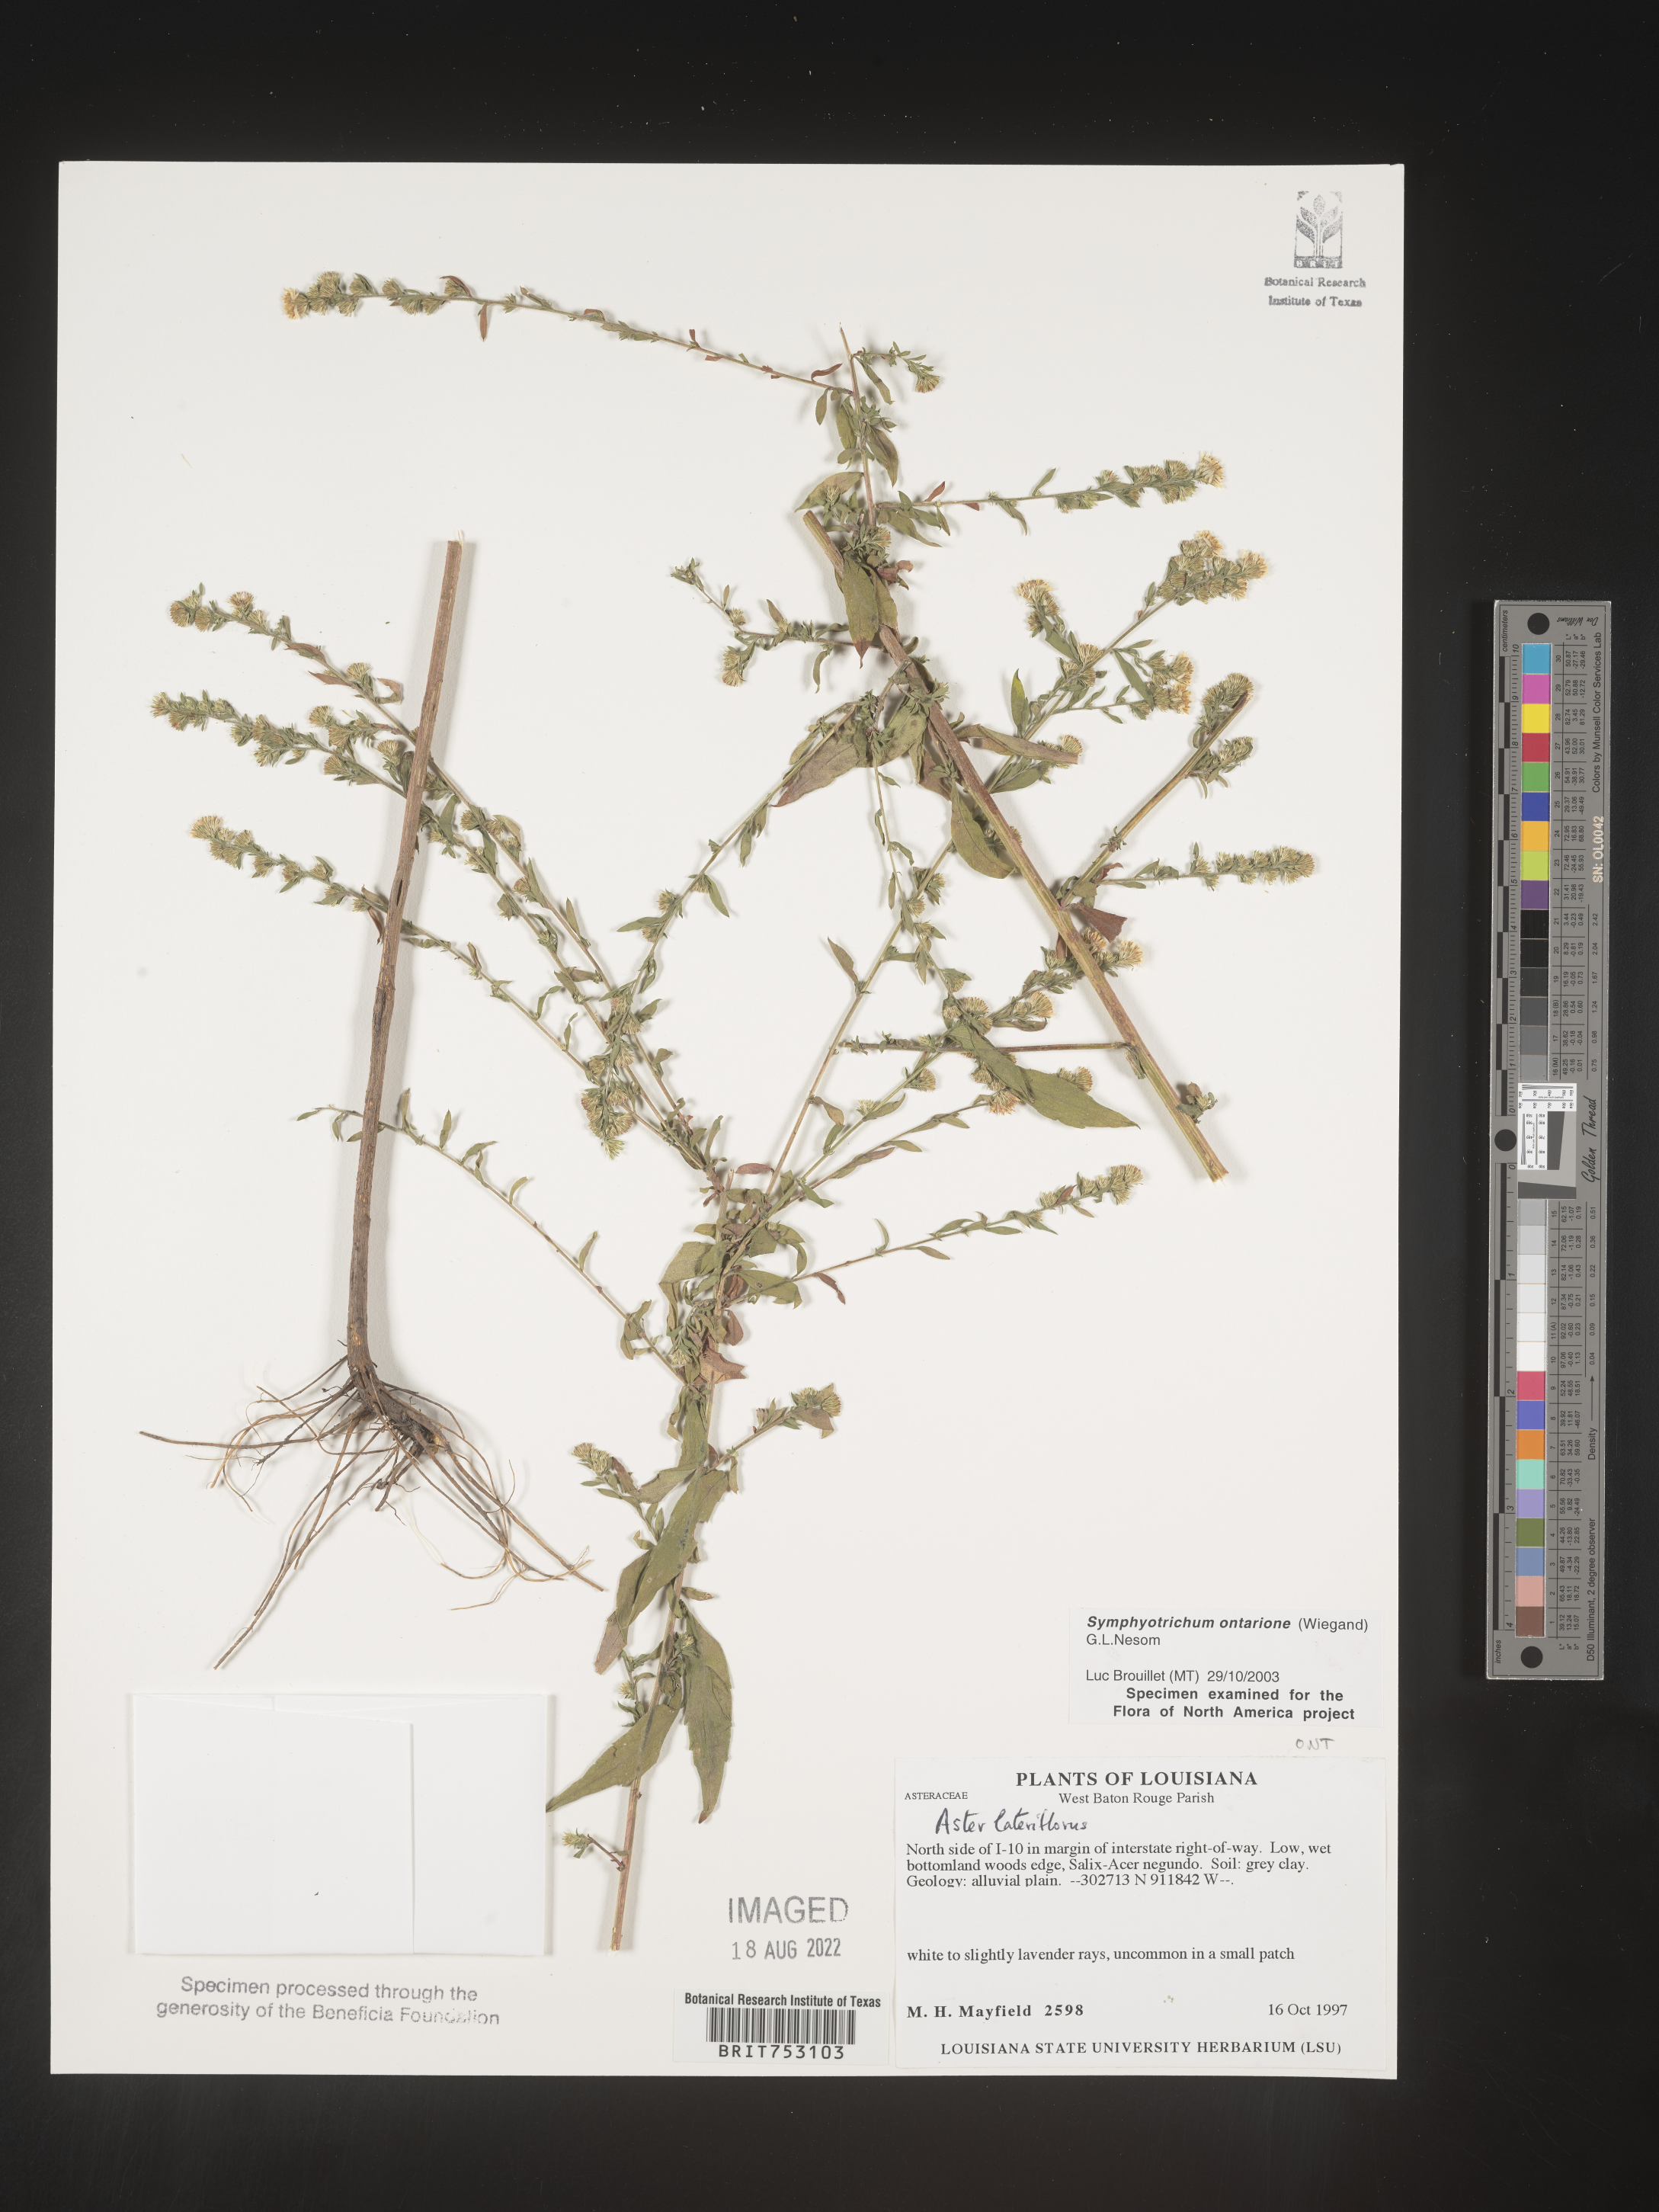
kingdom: Plantae
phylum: Tracheophyta
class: Magnoliopsida
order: Asterales
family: Asteraceae
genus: Symphyotrichum
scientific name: Symphyotrichum ontarionis
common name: Bottomland aster
